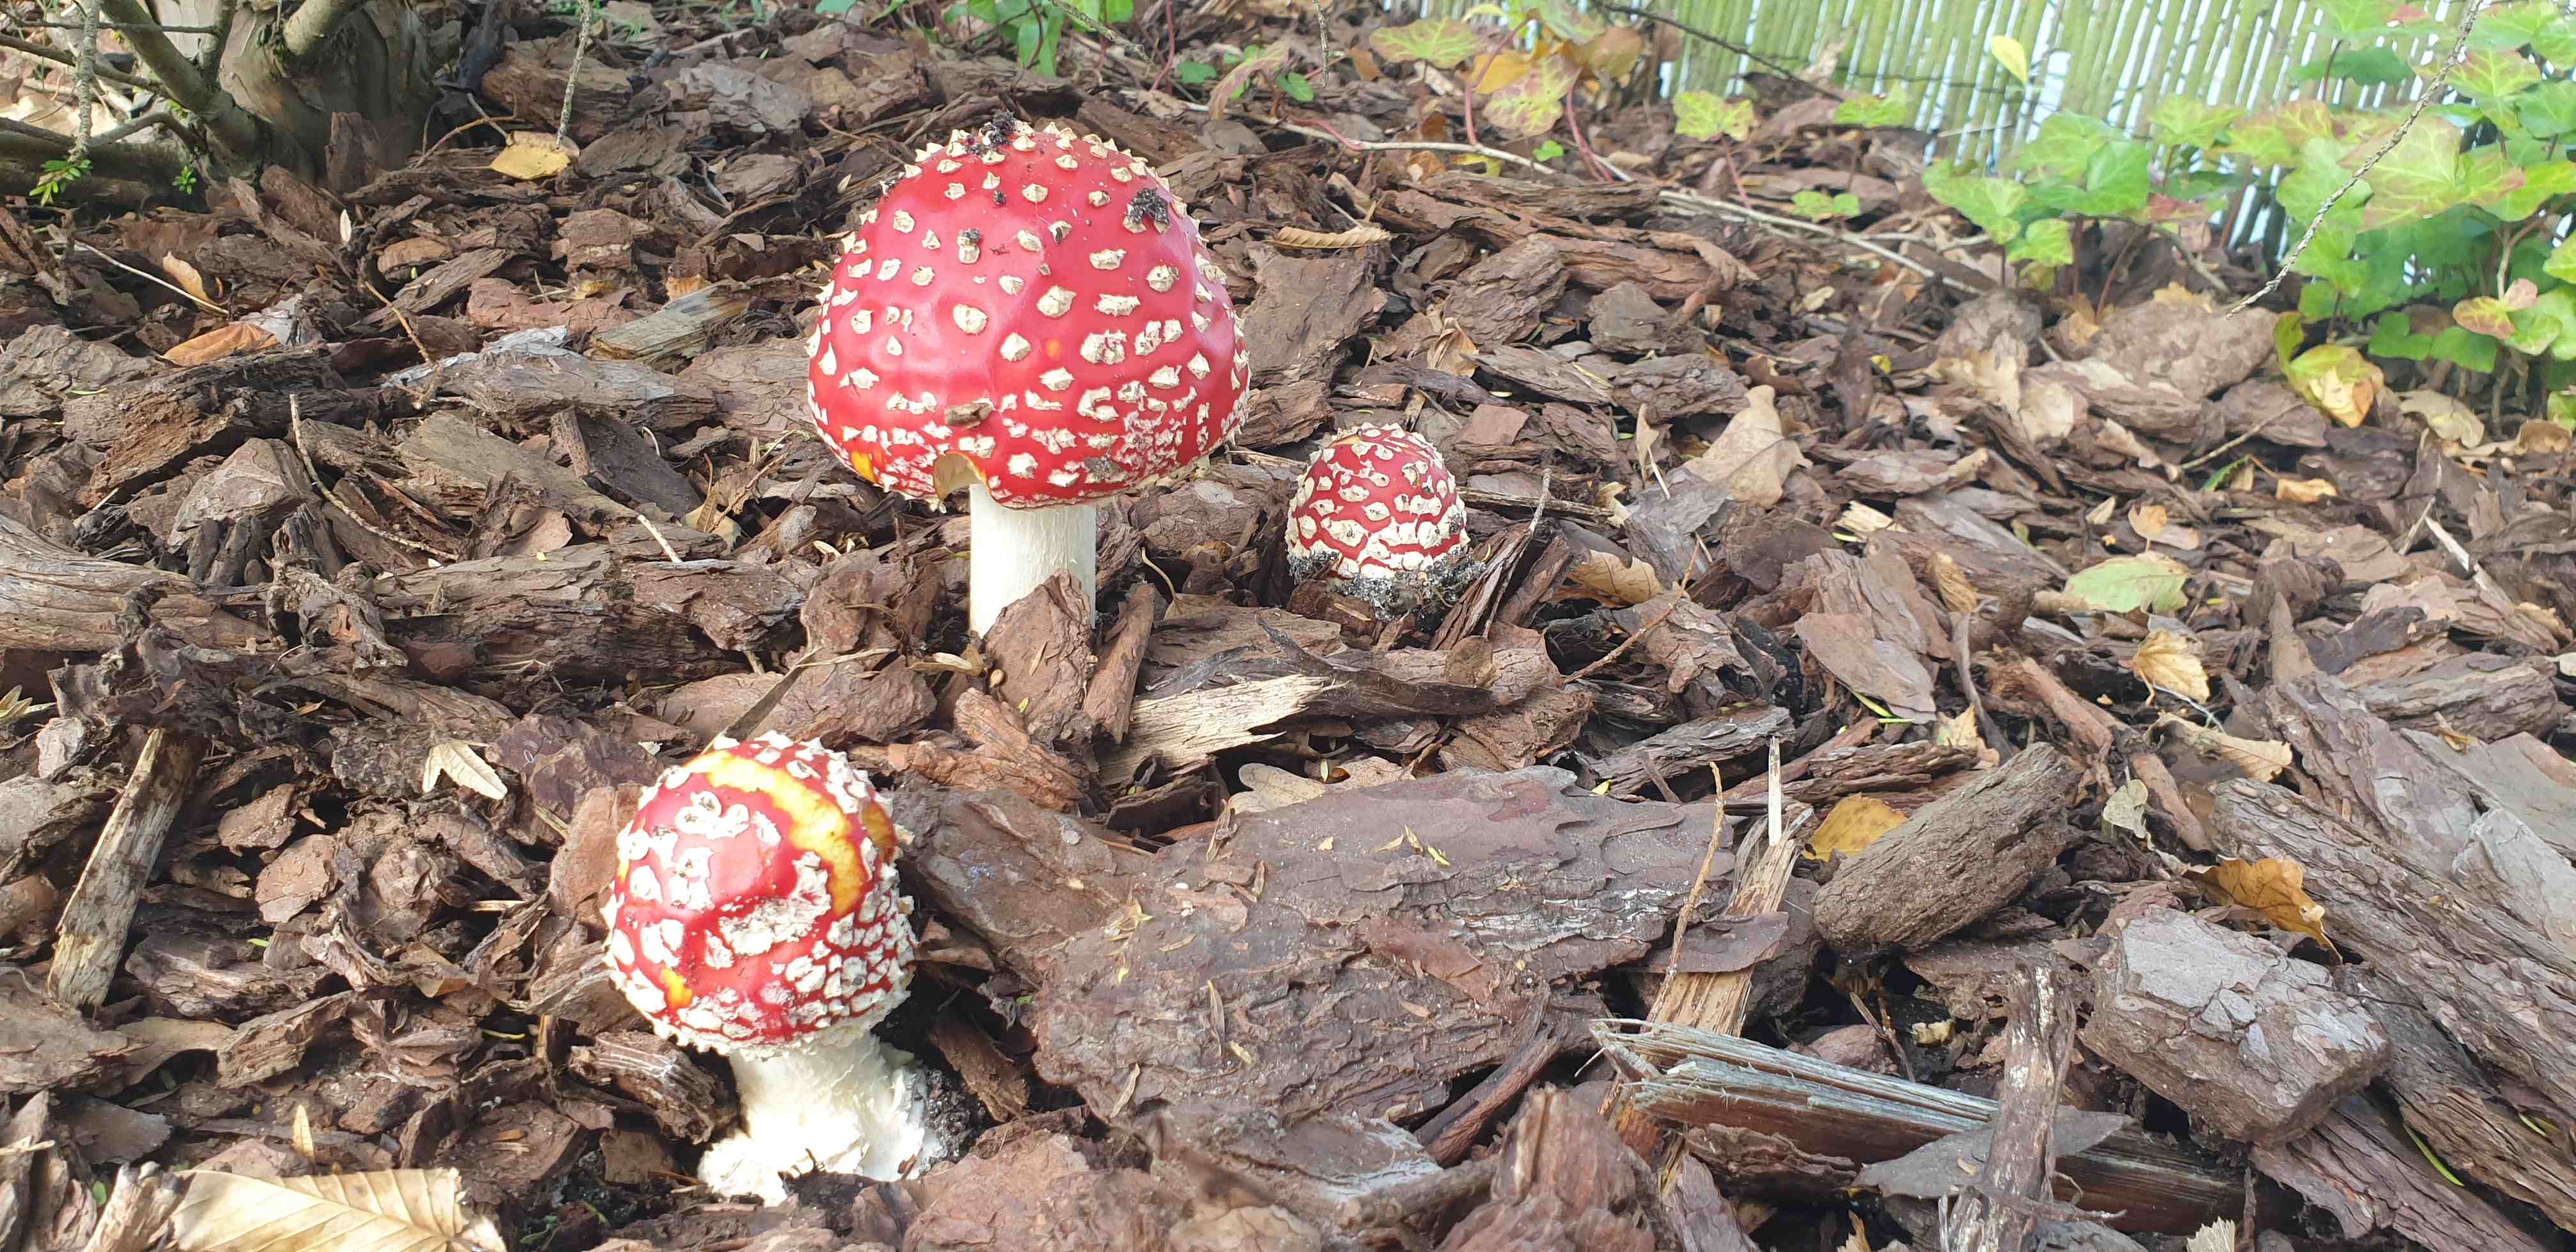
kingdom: Fungi
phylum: Basidiomycota
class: Agaricomycetes
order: Agaricales
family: Amanitaceae
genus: Amanita
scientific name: Amanita muscaria
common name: rød fluesvamp
